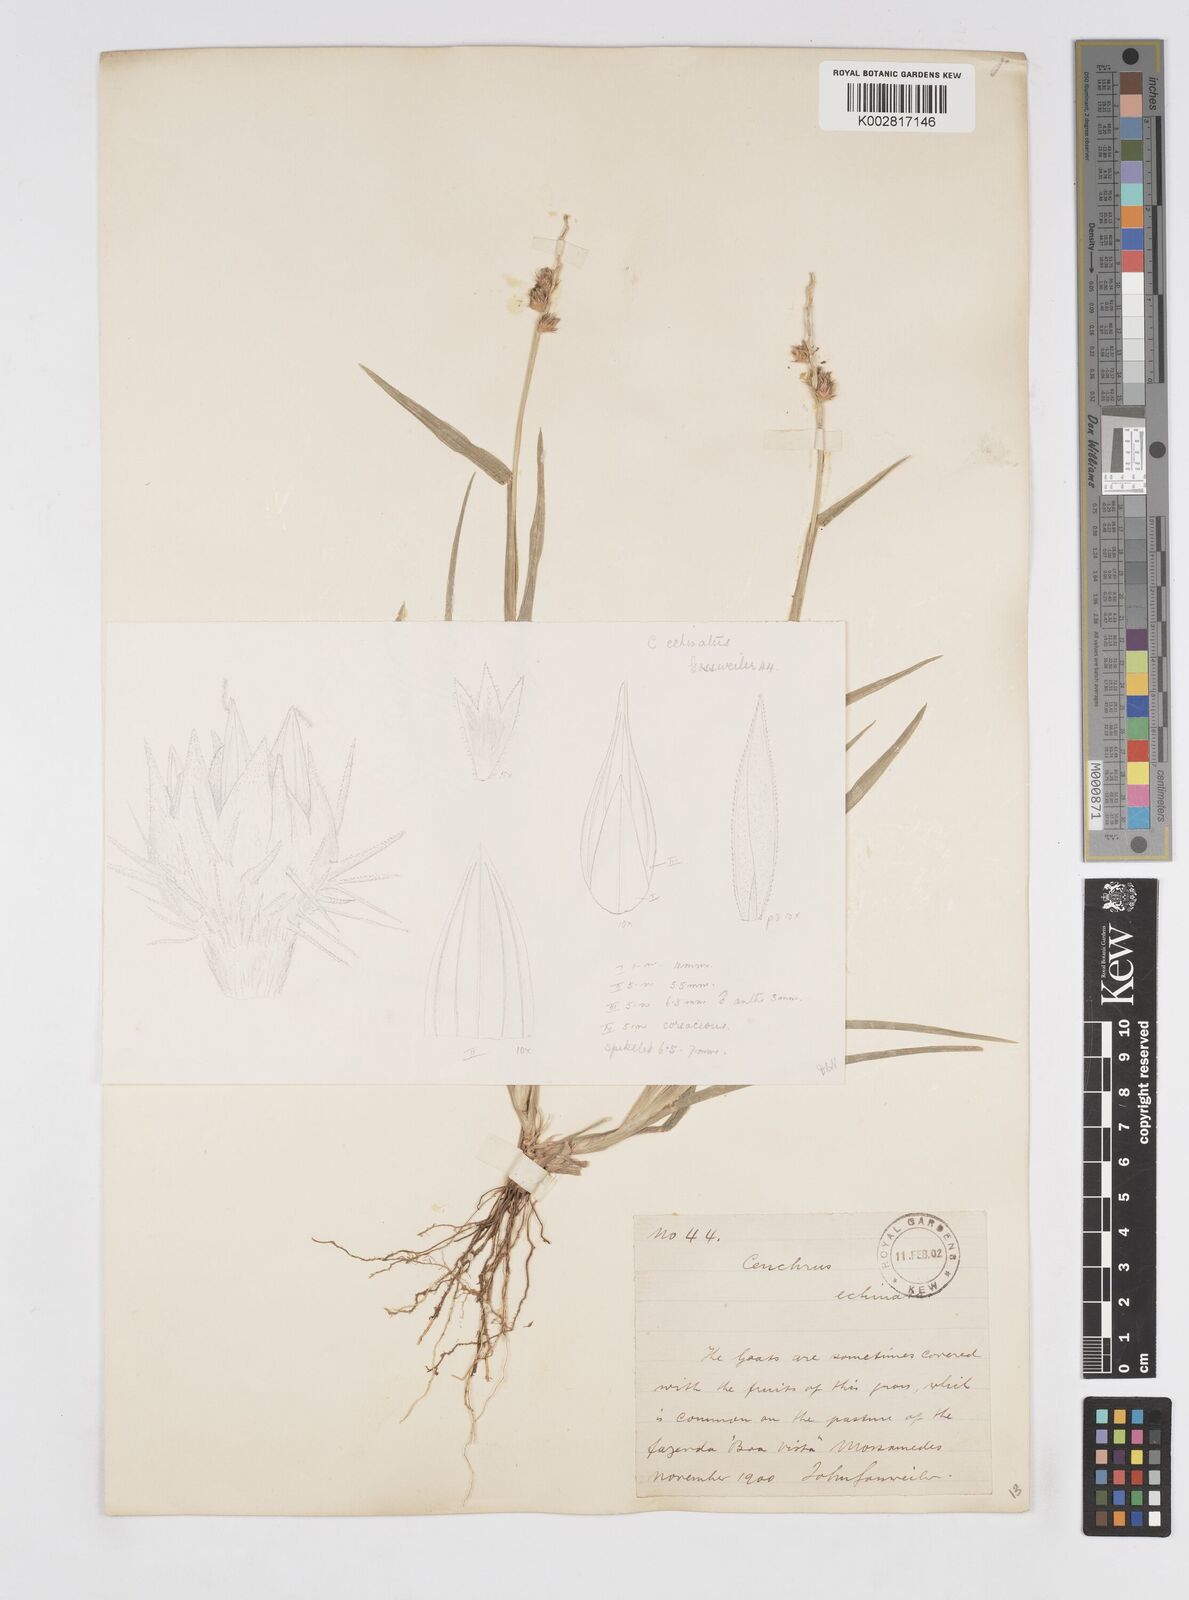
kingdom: Plantae
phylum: Tracheophyta
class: Liliopsida
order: Poales
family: Poaceae
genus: Cenchrus
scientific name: Cenchrus echinatus
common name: Southern sandbur
